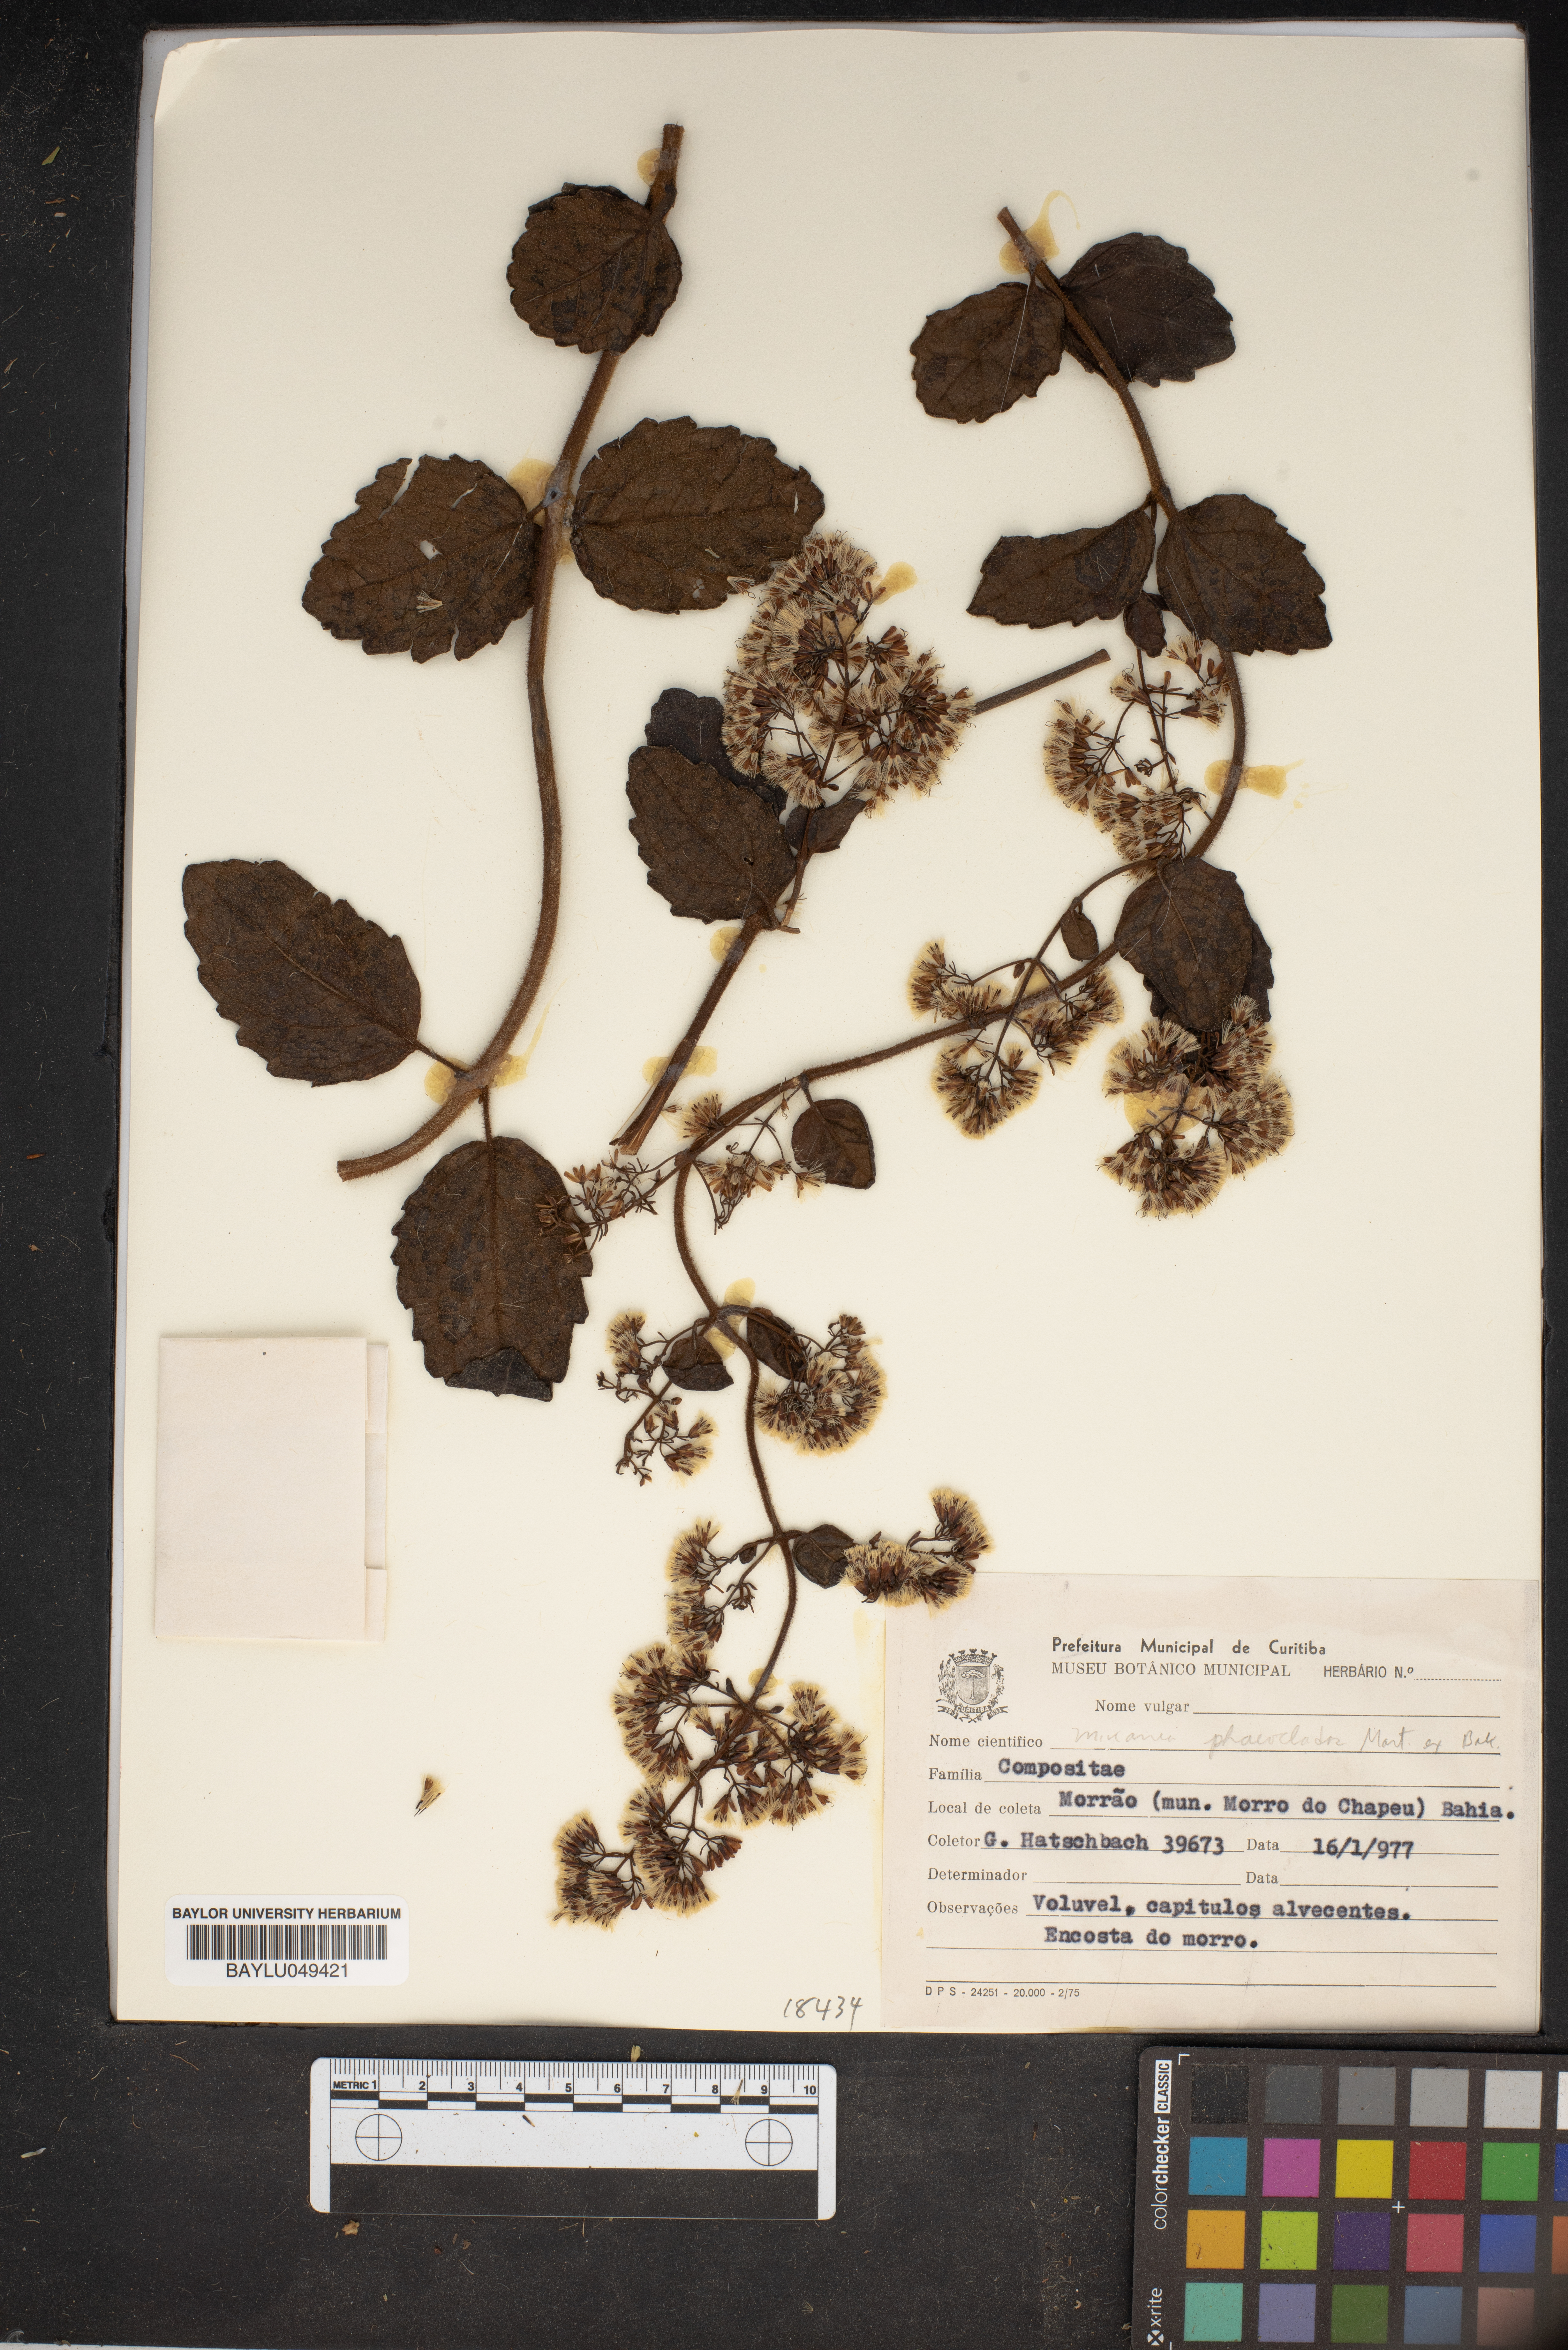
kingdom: Plantae
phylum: Tracheophyta
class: Magnoliopsida
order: Asterales
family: Asteraceae
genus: Mikania
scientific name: Mikania phaeoclados
